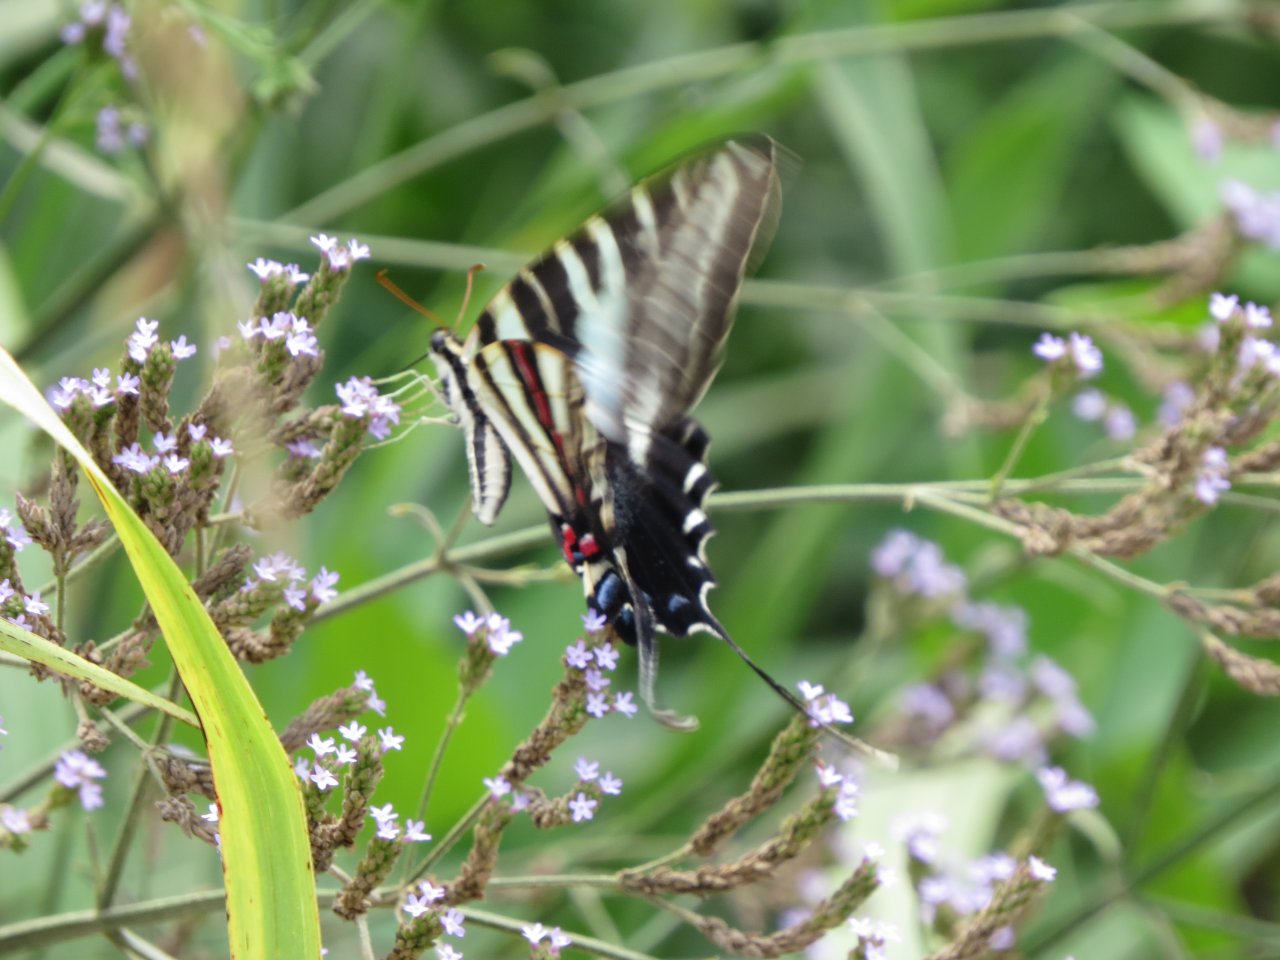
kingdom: Animalia
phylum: Arthropoda
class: Insecta
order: Lepidoptera
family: Papilionidae
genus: Protographium
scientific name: Protographium marcellus
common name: Zebra Swallowtail
